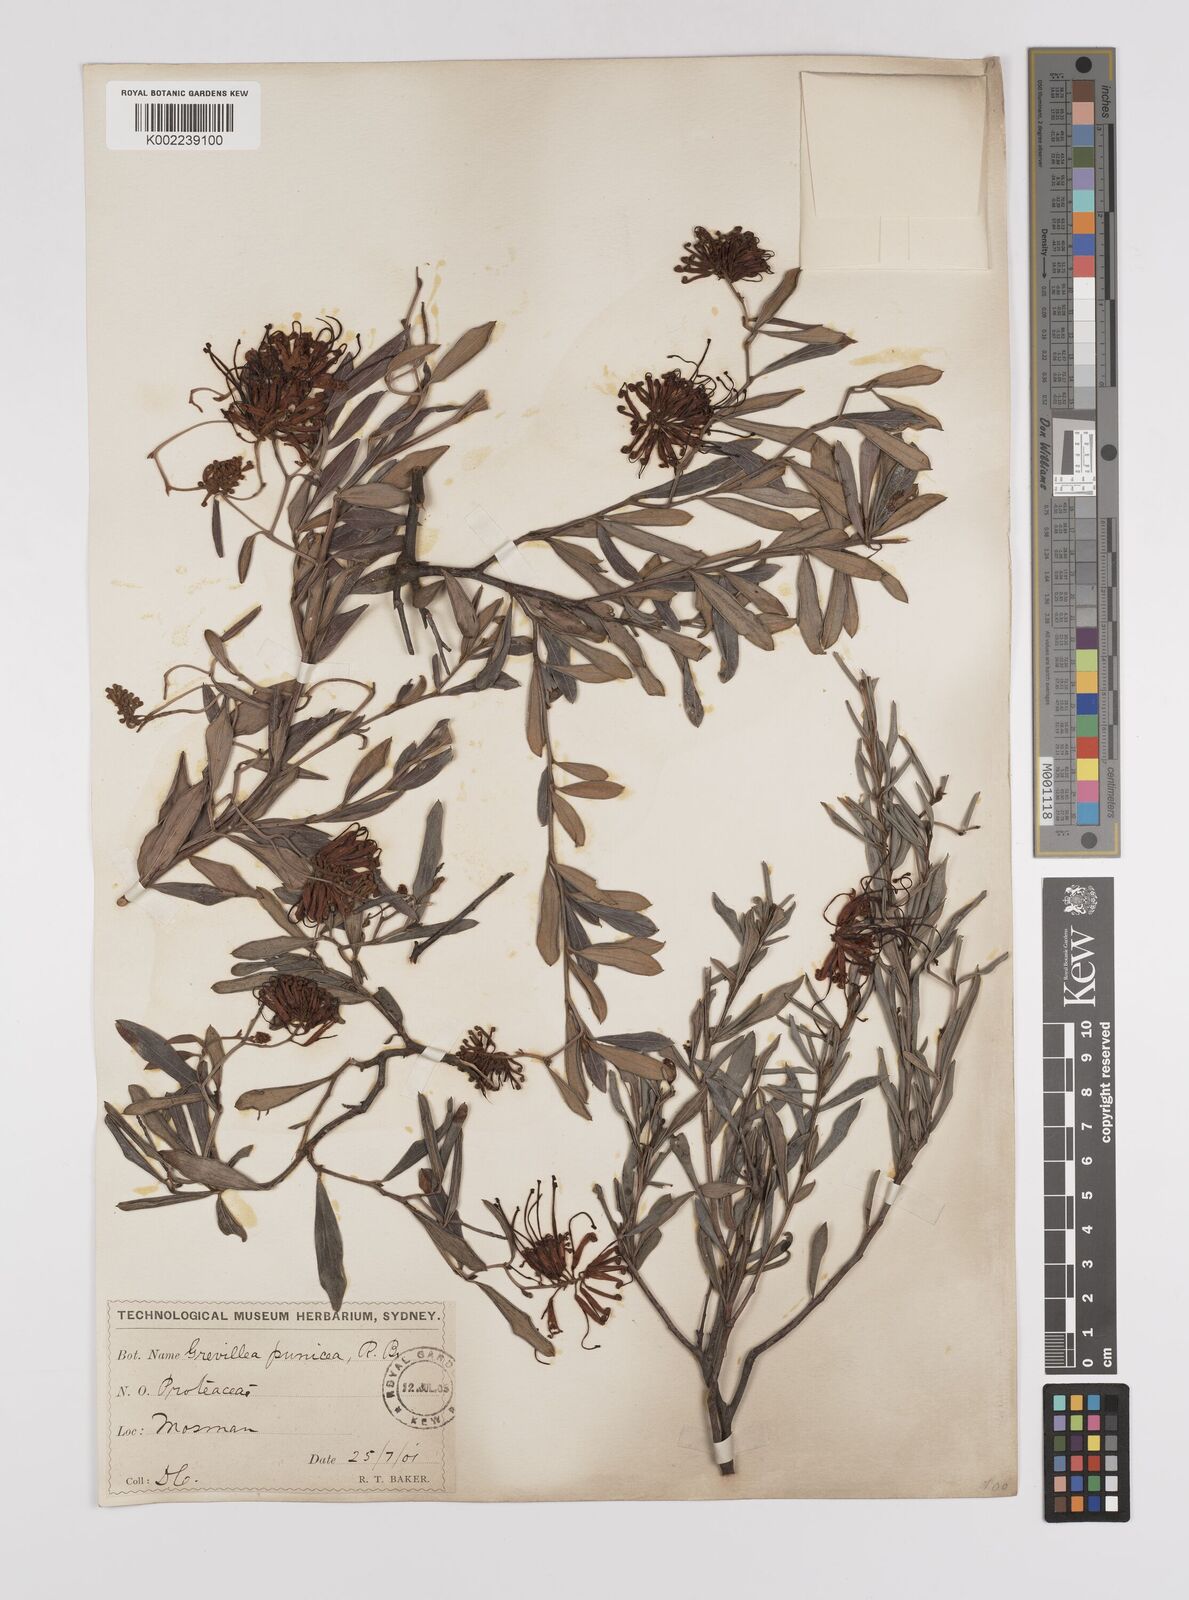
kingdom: Plantae
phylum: Tracheophyta
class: Magnoliopsida
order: Proteales
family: Proteaceae
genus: Grevillea
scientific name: Grevillea speciosa
